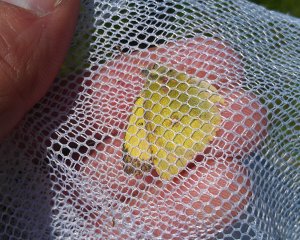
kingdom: Animalia
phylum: Arthropoda
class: Insecta
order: Lepidoptera
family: Pieridae
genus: Colias
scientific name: Colias philodice
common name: Clouded Sulphur
